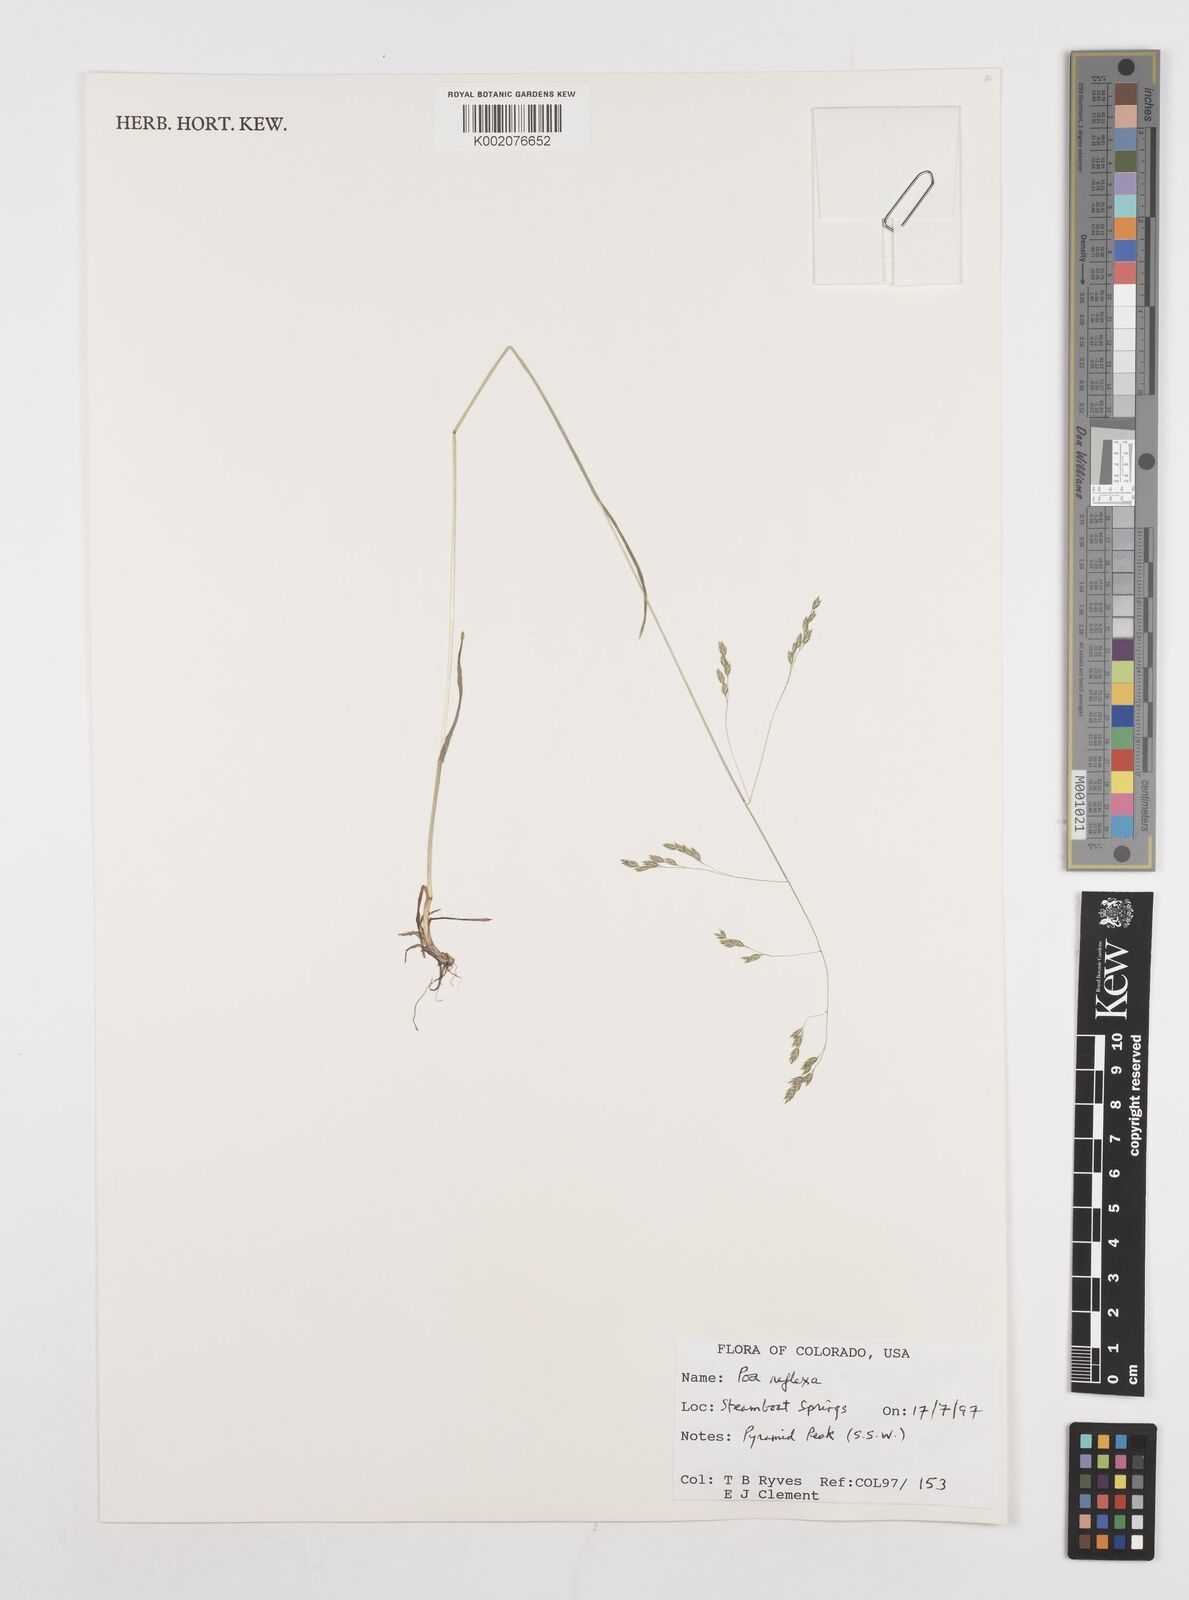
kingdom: Plantae
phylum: Tracheophyta
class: Liliopsida
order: Poales
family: Poaceae
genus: Poa
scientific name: Poa reflexa
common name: Nodding bluegrass
